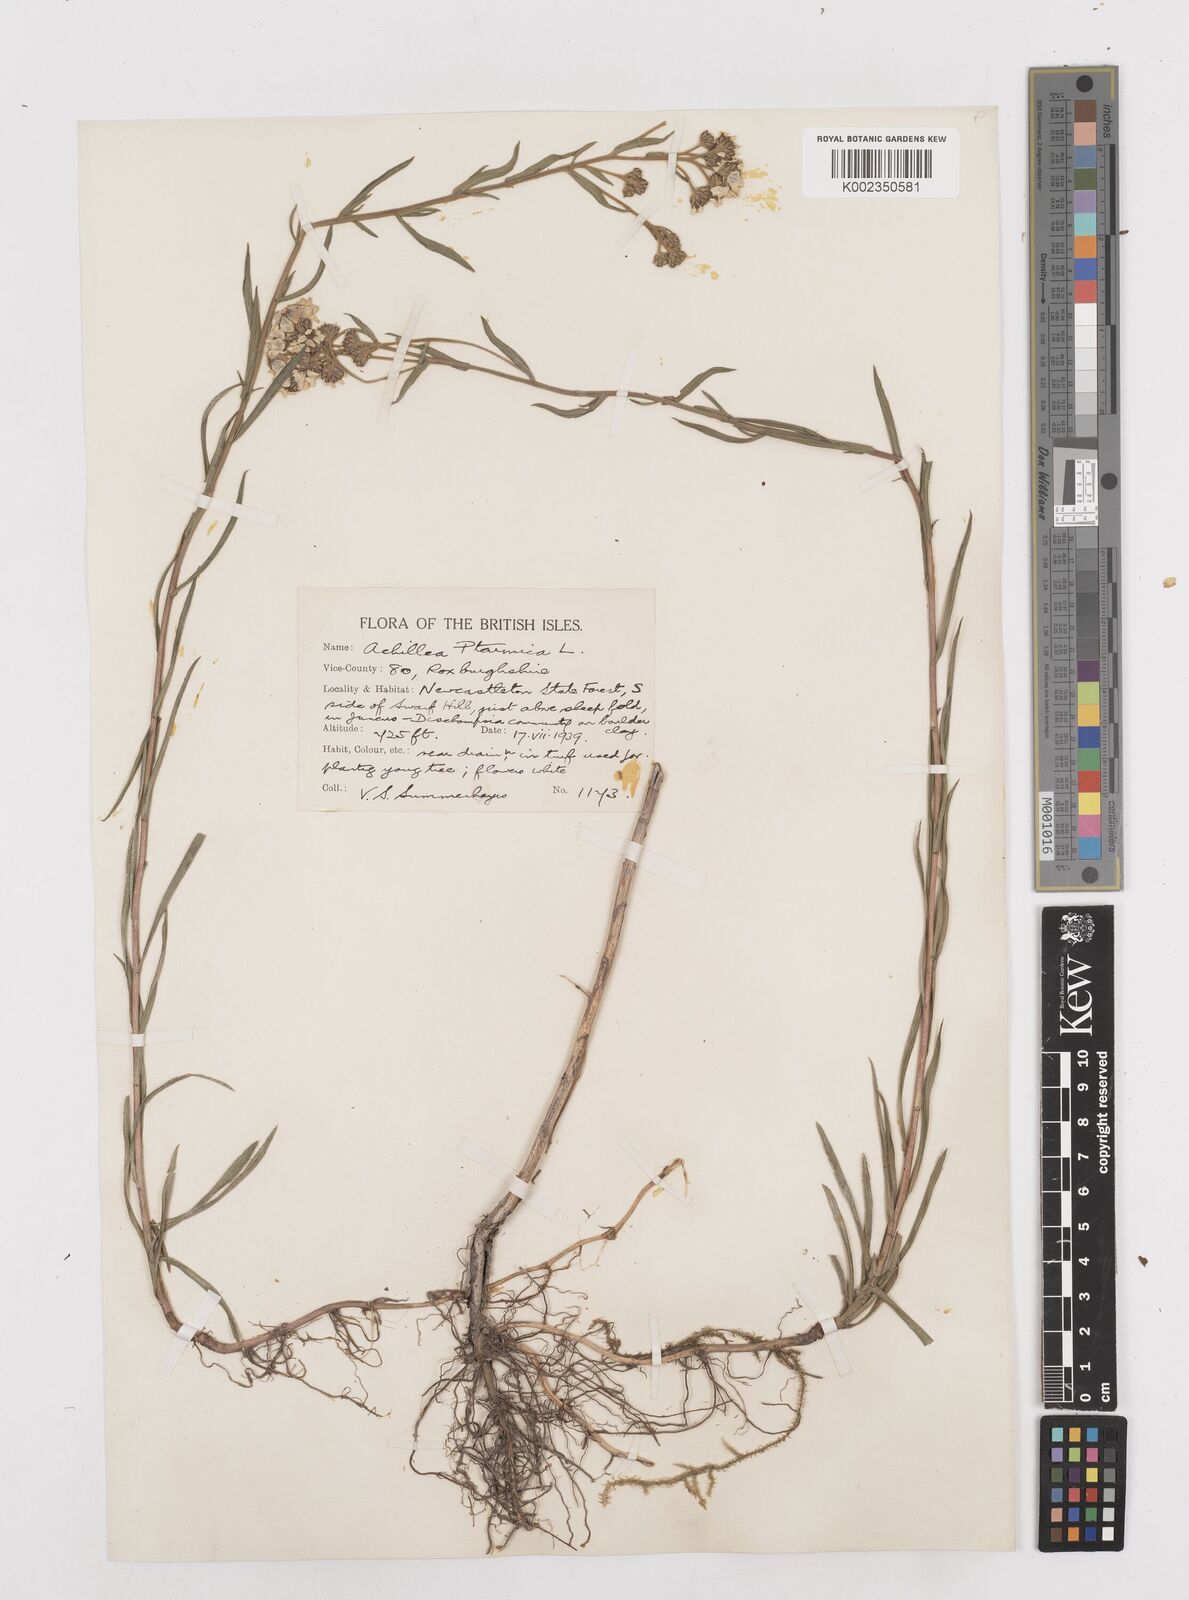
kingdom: Plantae
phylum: Tracheophyta
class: Magnoliopsida
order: Asterales
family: Asteraceae
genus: Achillea
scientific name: Achillea ptarmica
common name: Sneezeweed
